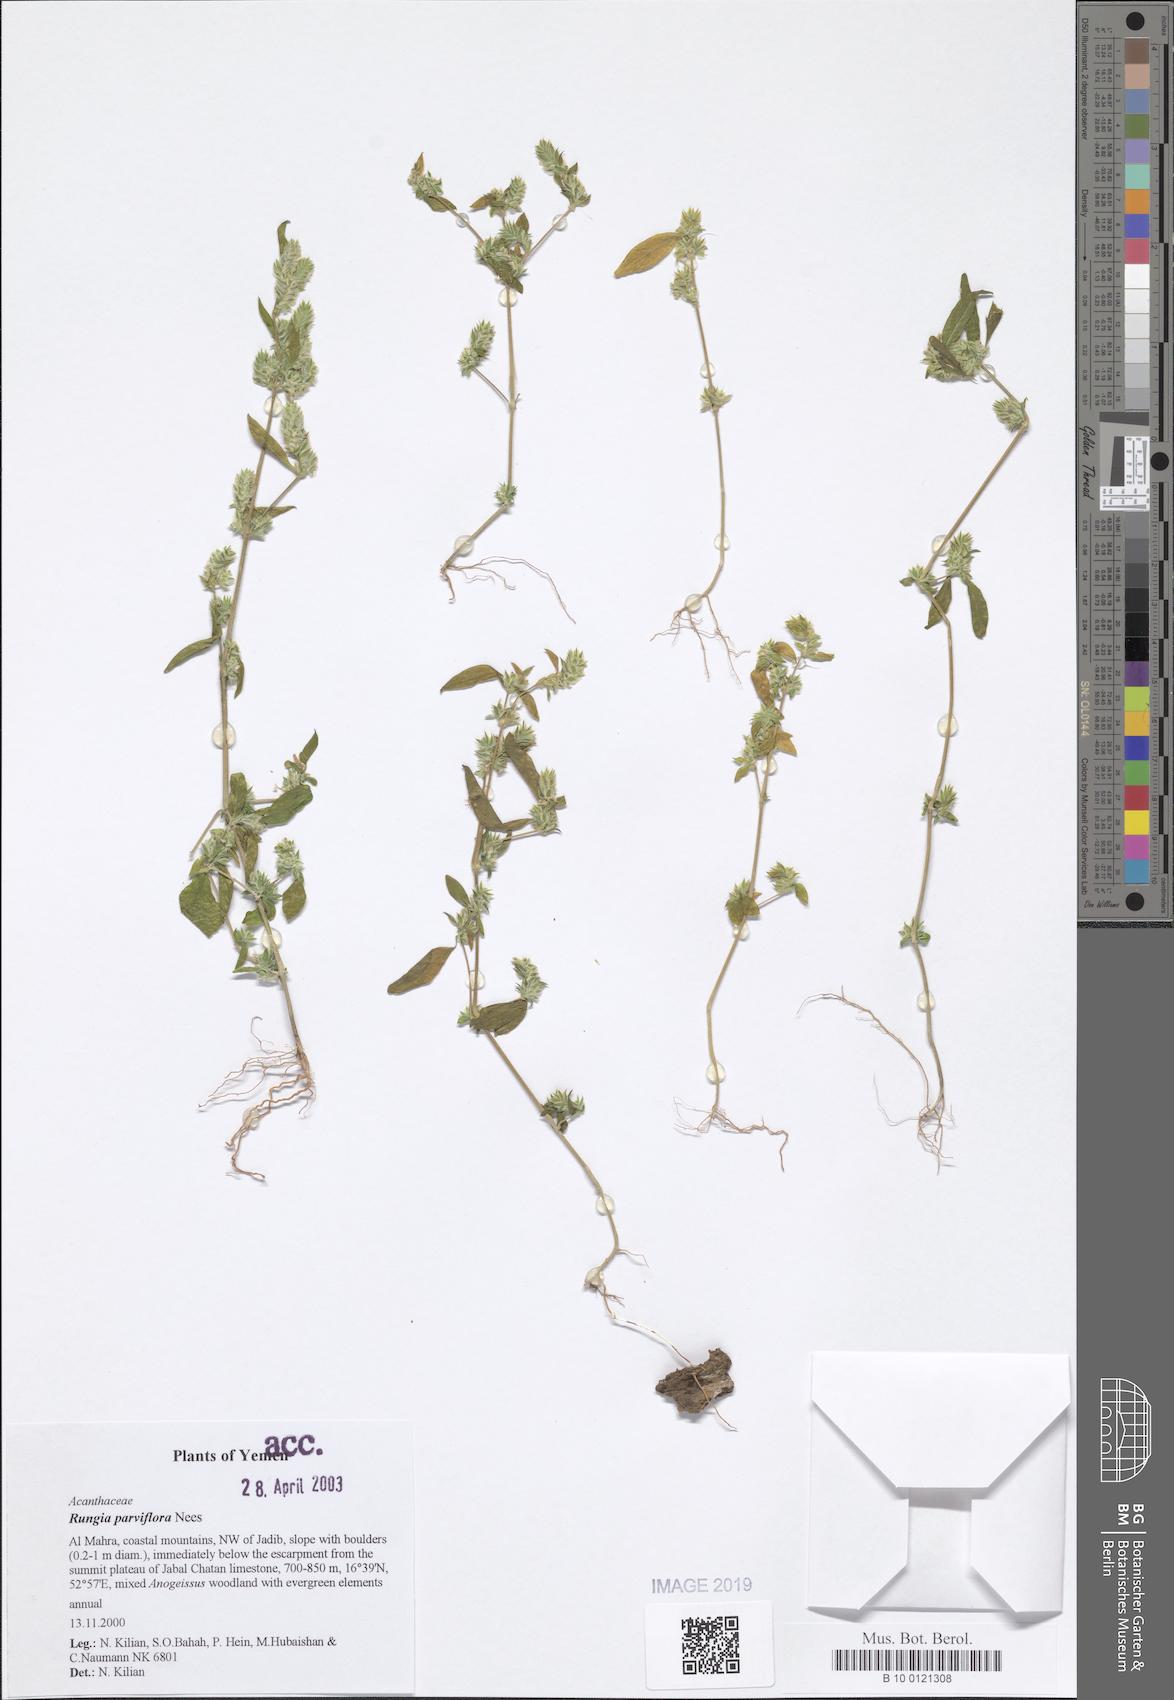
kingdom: Plantae
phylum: Tracheophyta
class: Magnoliopsida
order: Lamiales
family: Acanthaceae
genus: Rungia
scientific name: Rungia pectinata
